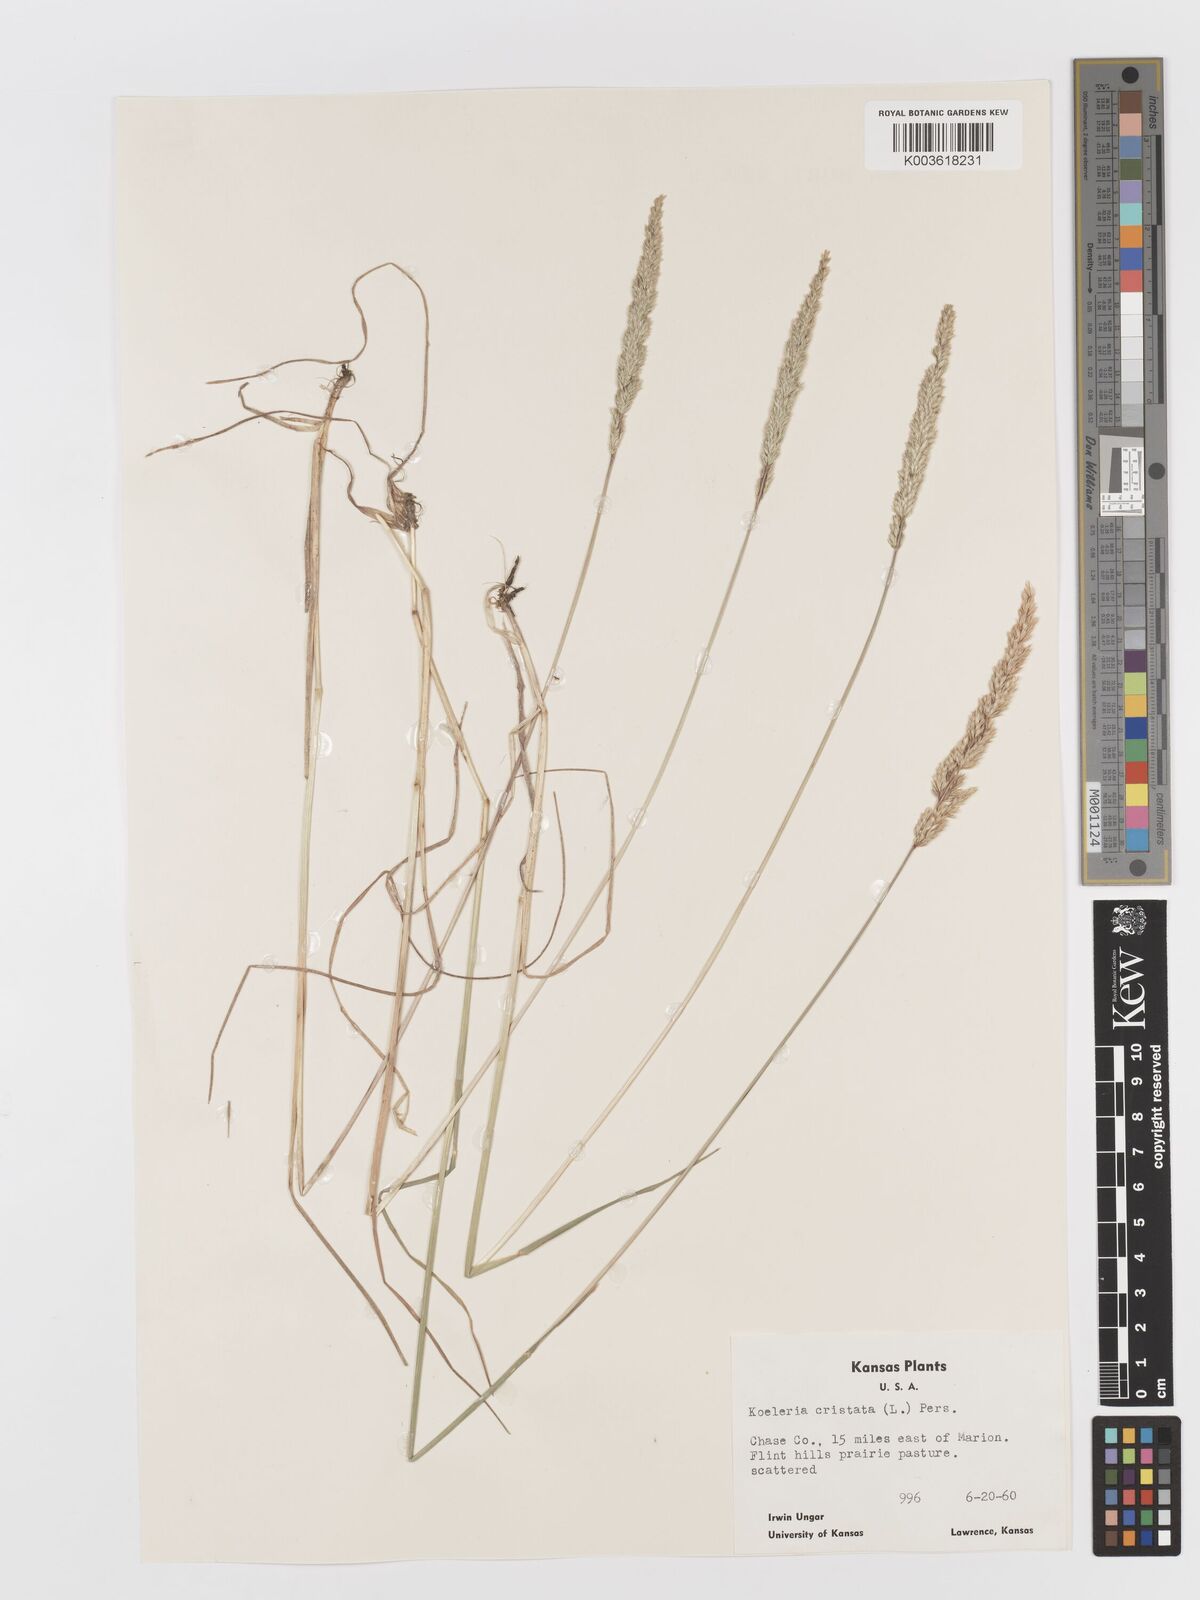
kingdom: Plantae
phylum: Tracheophyta
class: Liliopsida
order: Poales
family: Poaceae
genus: Koeleria
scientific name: Koeleria macrantha
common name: Crested hair-grass
